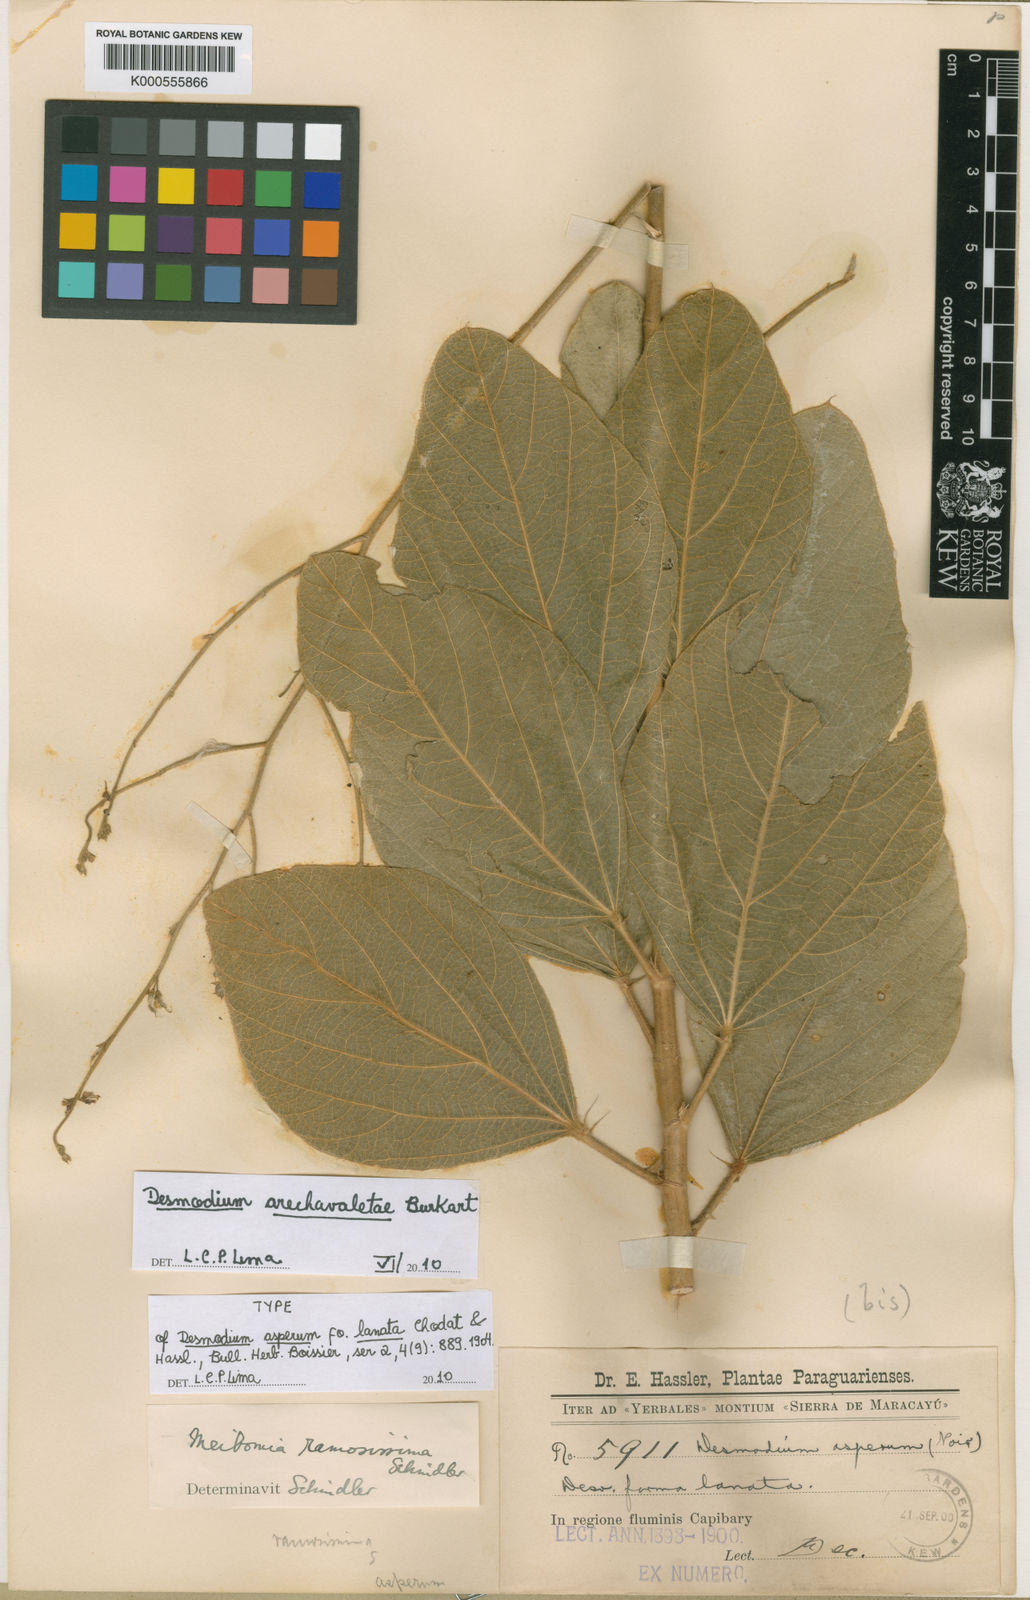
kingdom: Plantae
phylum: Tracheophyta
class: Magnoliopsida
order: Fabales
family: Fabaceae
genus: Desmodium
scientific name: Desmodium arechavaletae
